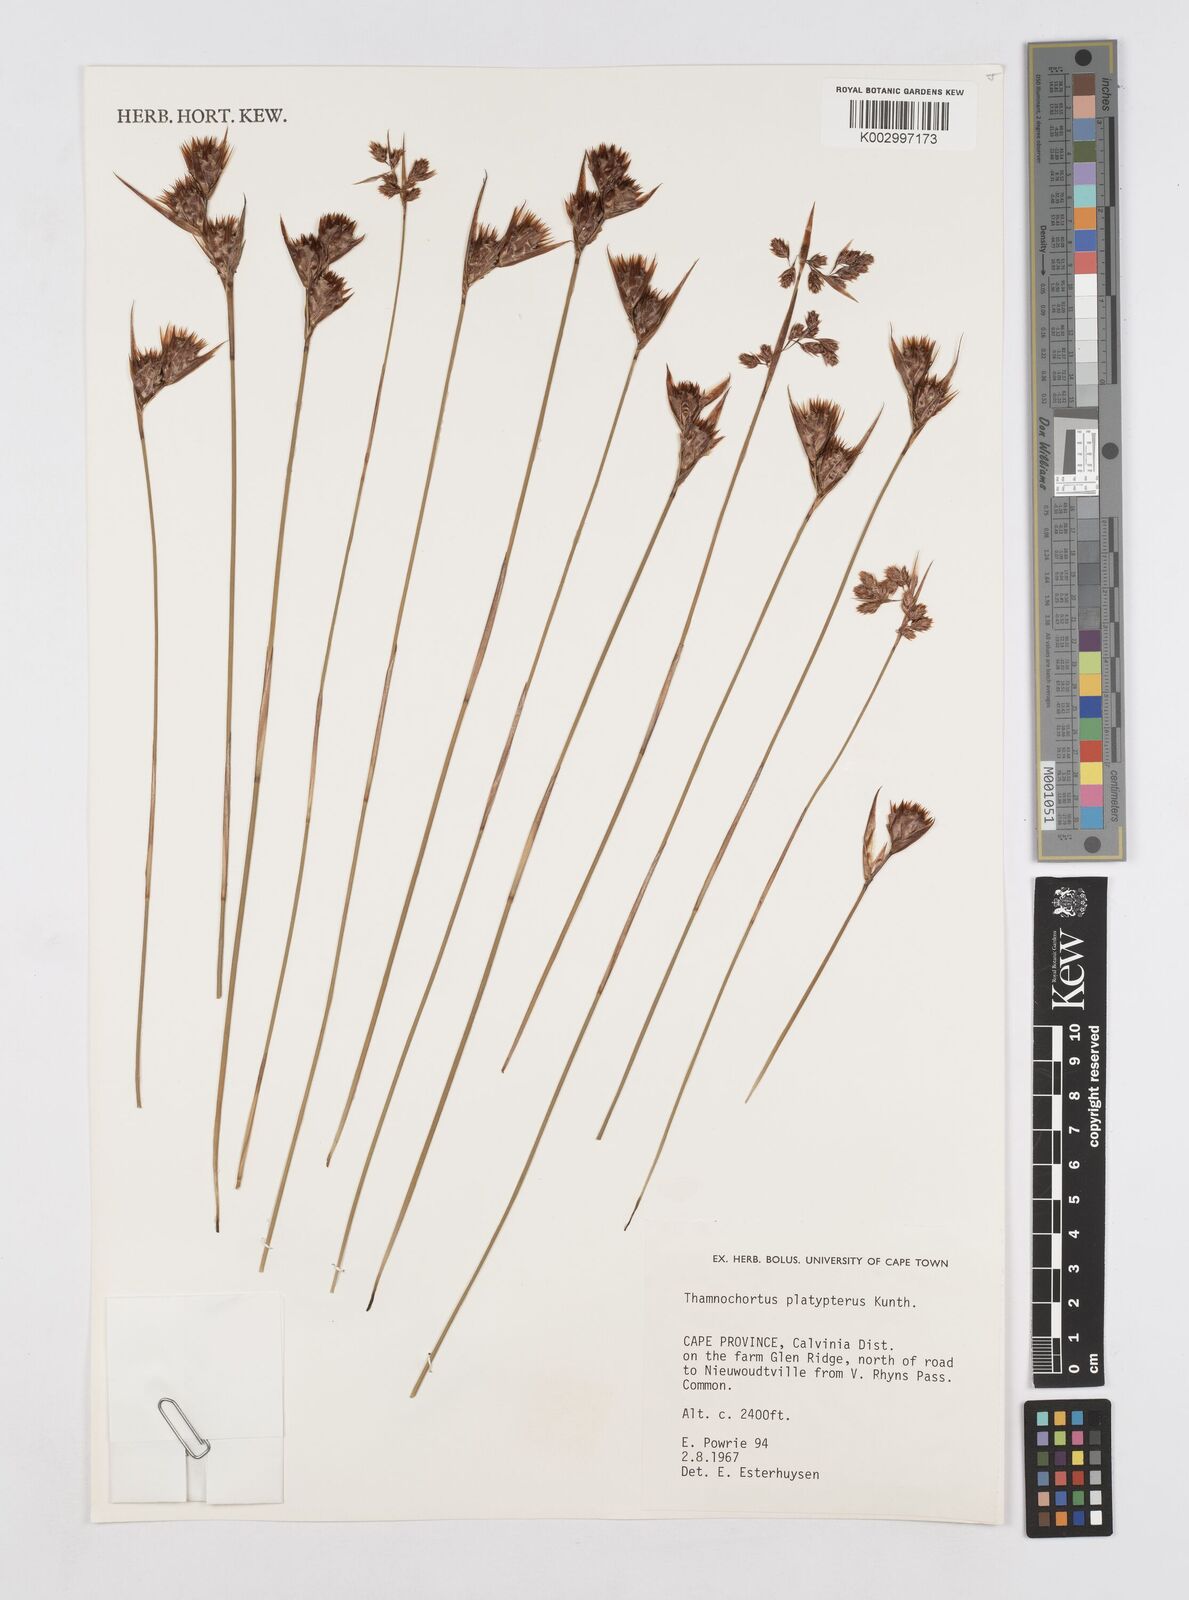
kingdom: Plantae
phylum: Tracheophyta
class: Liliopsida
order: Poales
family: Restionaceae
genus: Thamnochortus
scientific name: Thamnochortus platypteris
